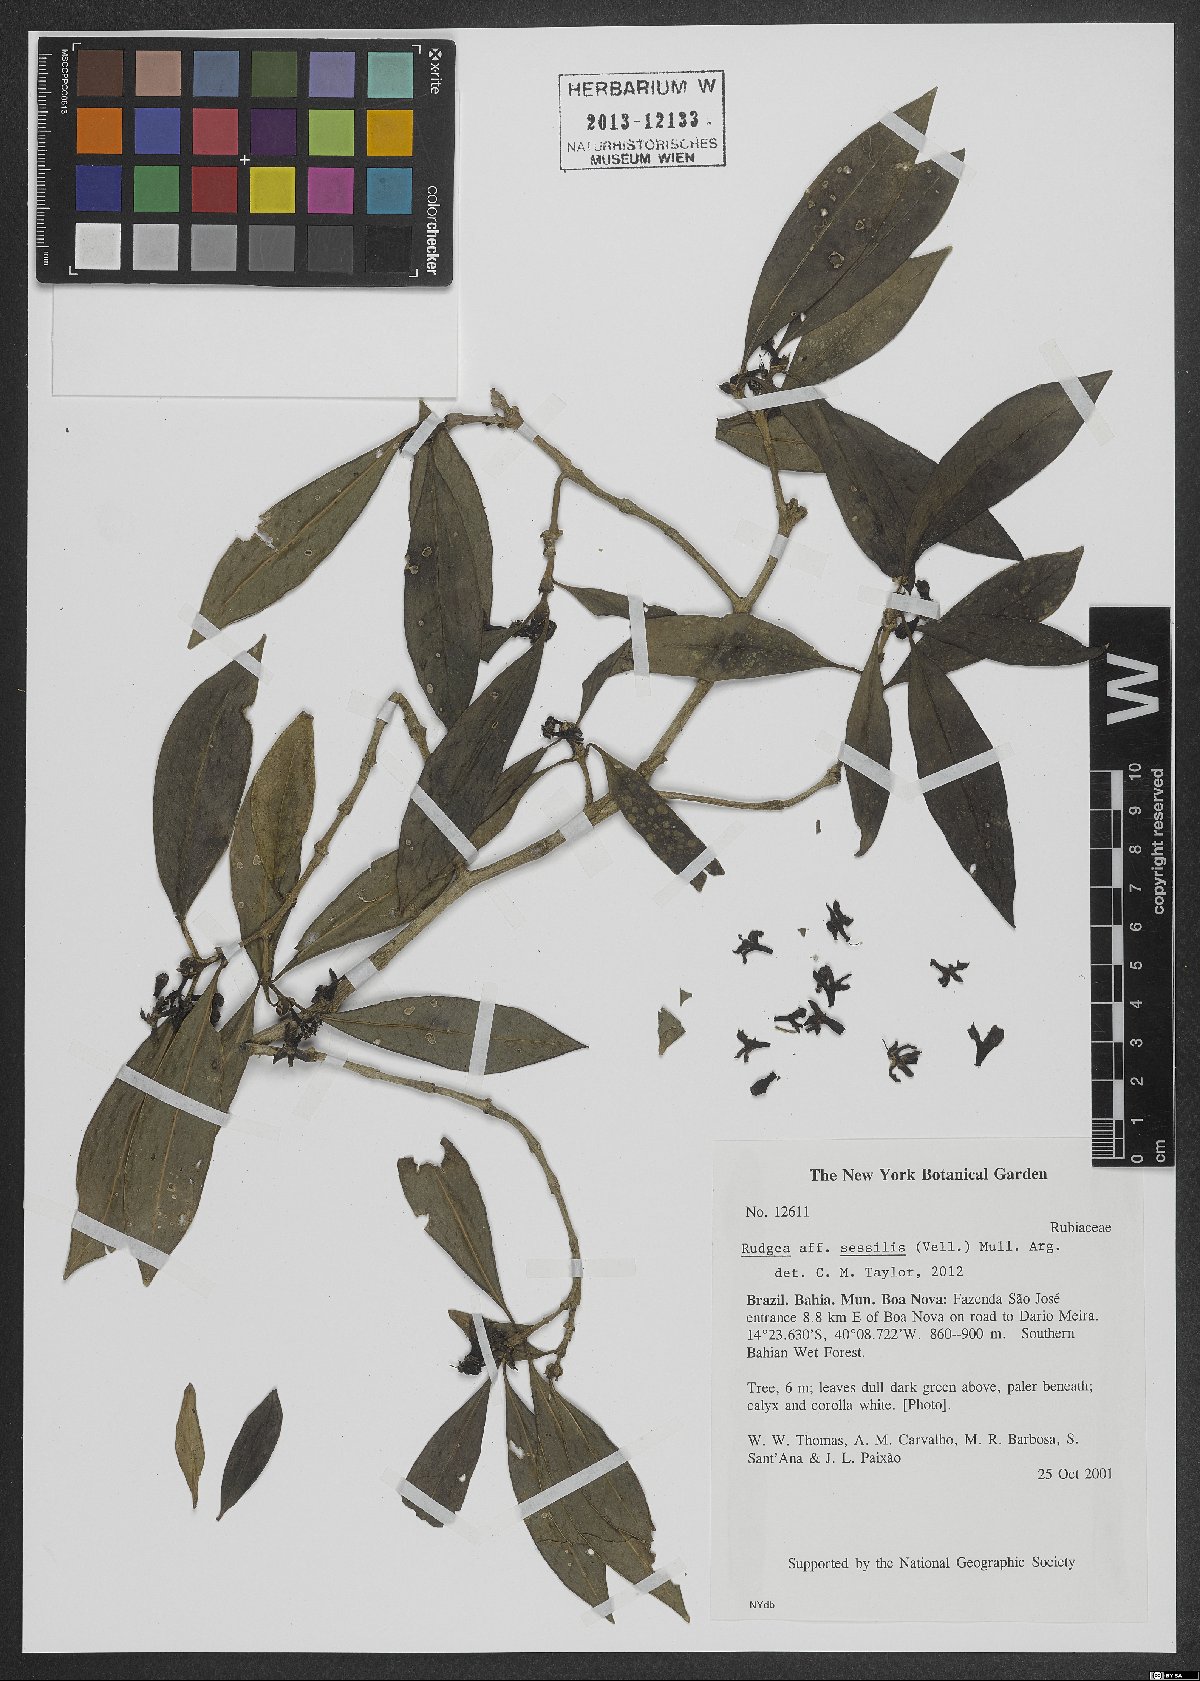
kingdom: Plantae
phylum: Tracheophyta
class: Magnoliopsida
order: Gentianales
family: Rubiaceae
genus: Rudgea
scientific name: Rudgea sessilis
